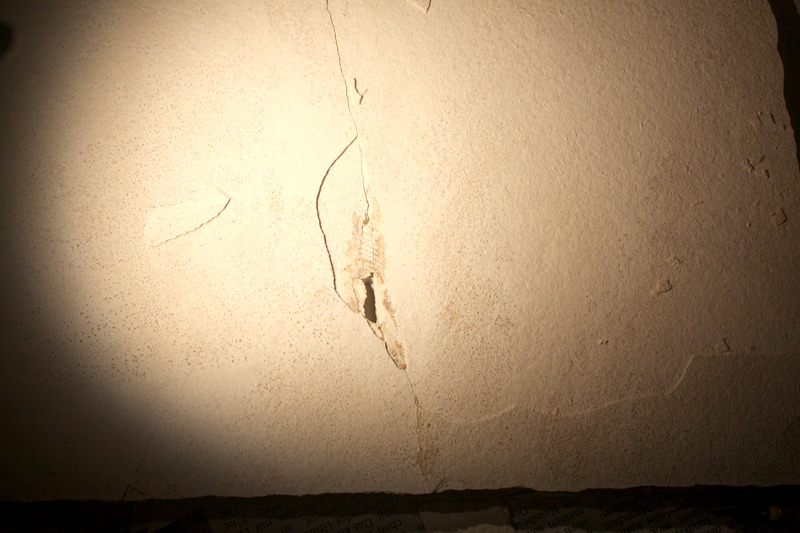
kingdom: Animalia
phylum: Chordata
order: Salmoniformes
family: Orthogonikleithridae
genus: Orthogonikleithrus
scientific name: Orthogonikleithrus hoelli
